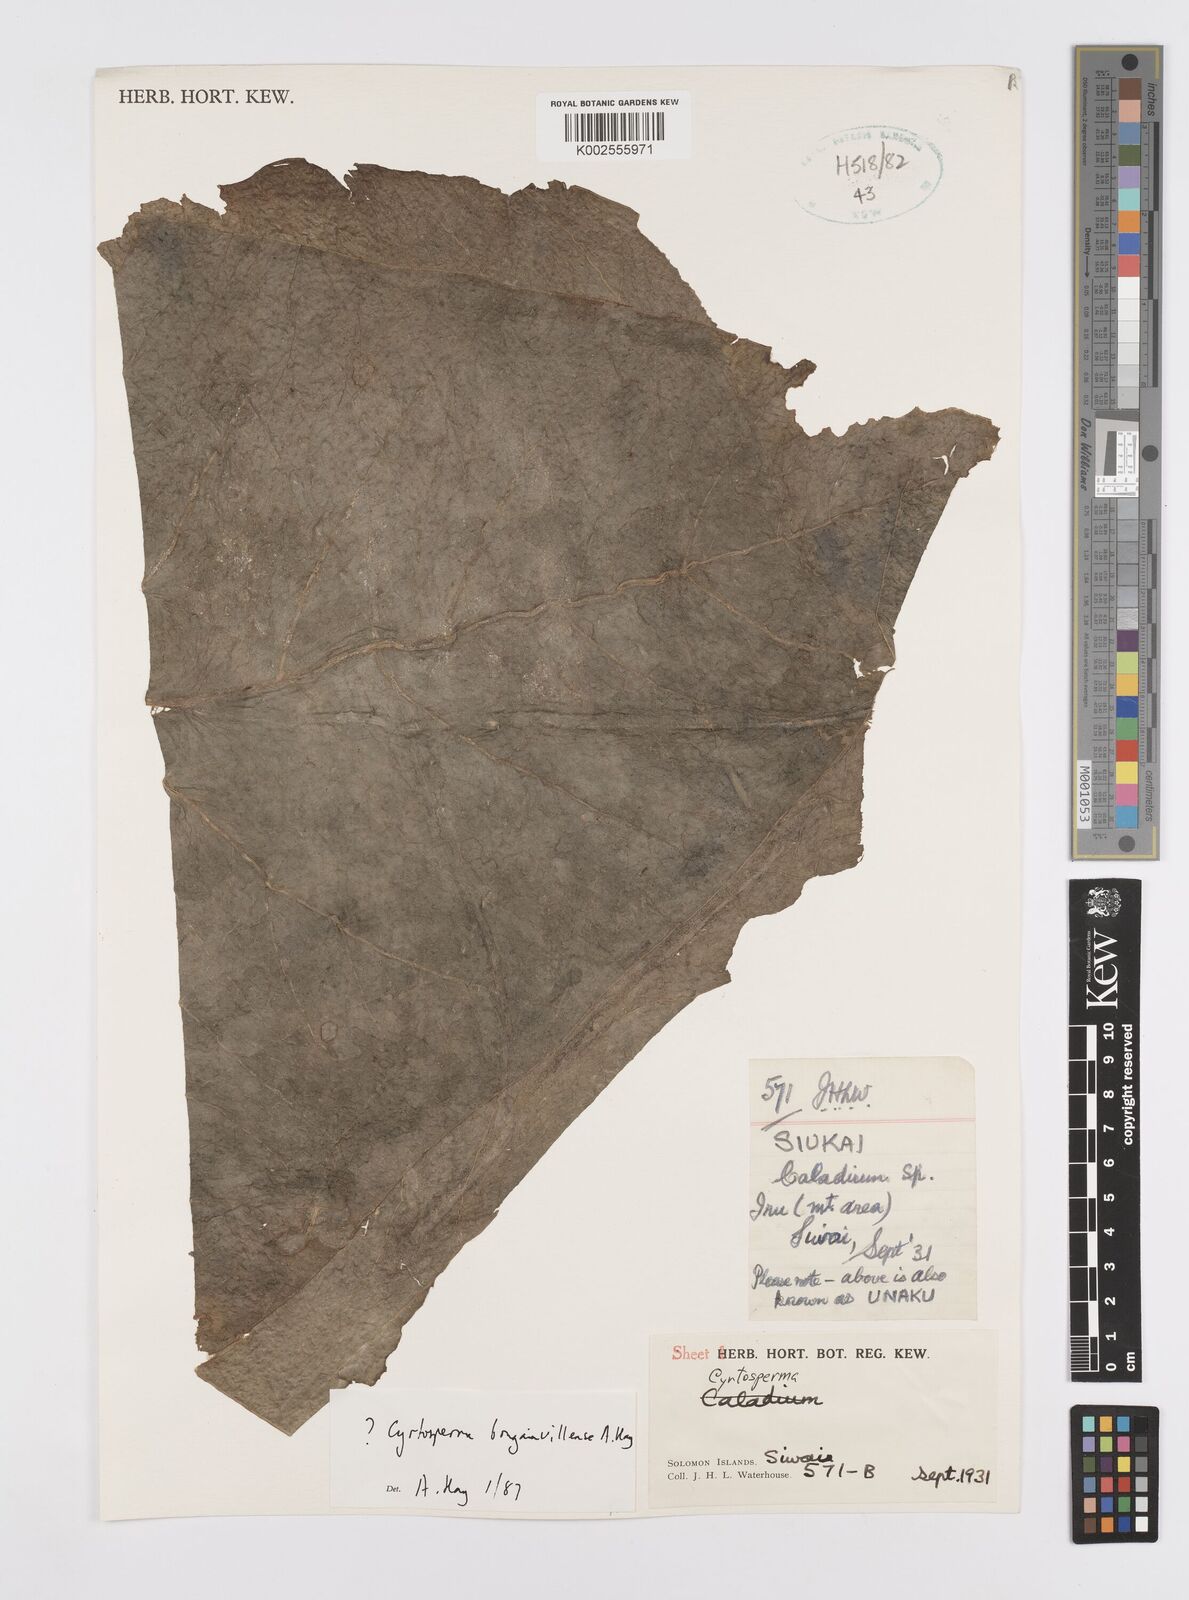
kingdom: Plantae
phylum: Tracheophyta
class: Liliopsida
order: Alismatales
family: Araceae
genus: Cyrtosperma
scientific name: Cyrtosperma bougainvillense
